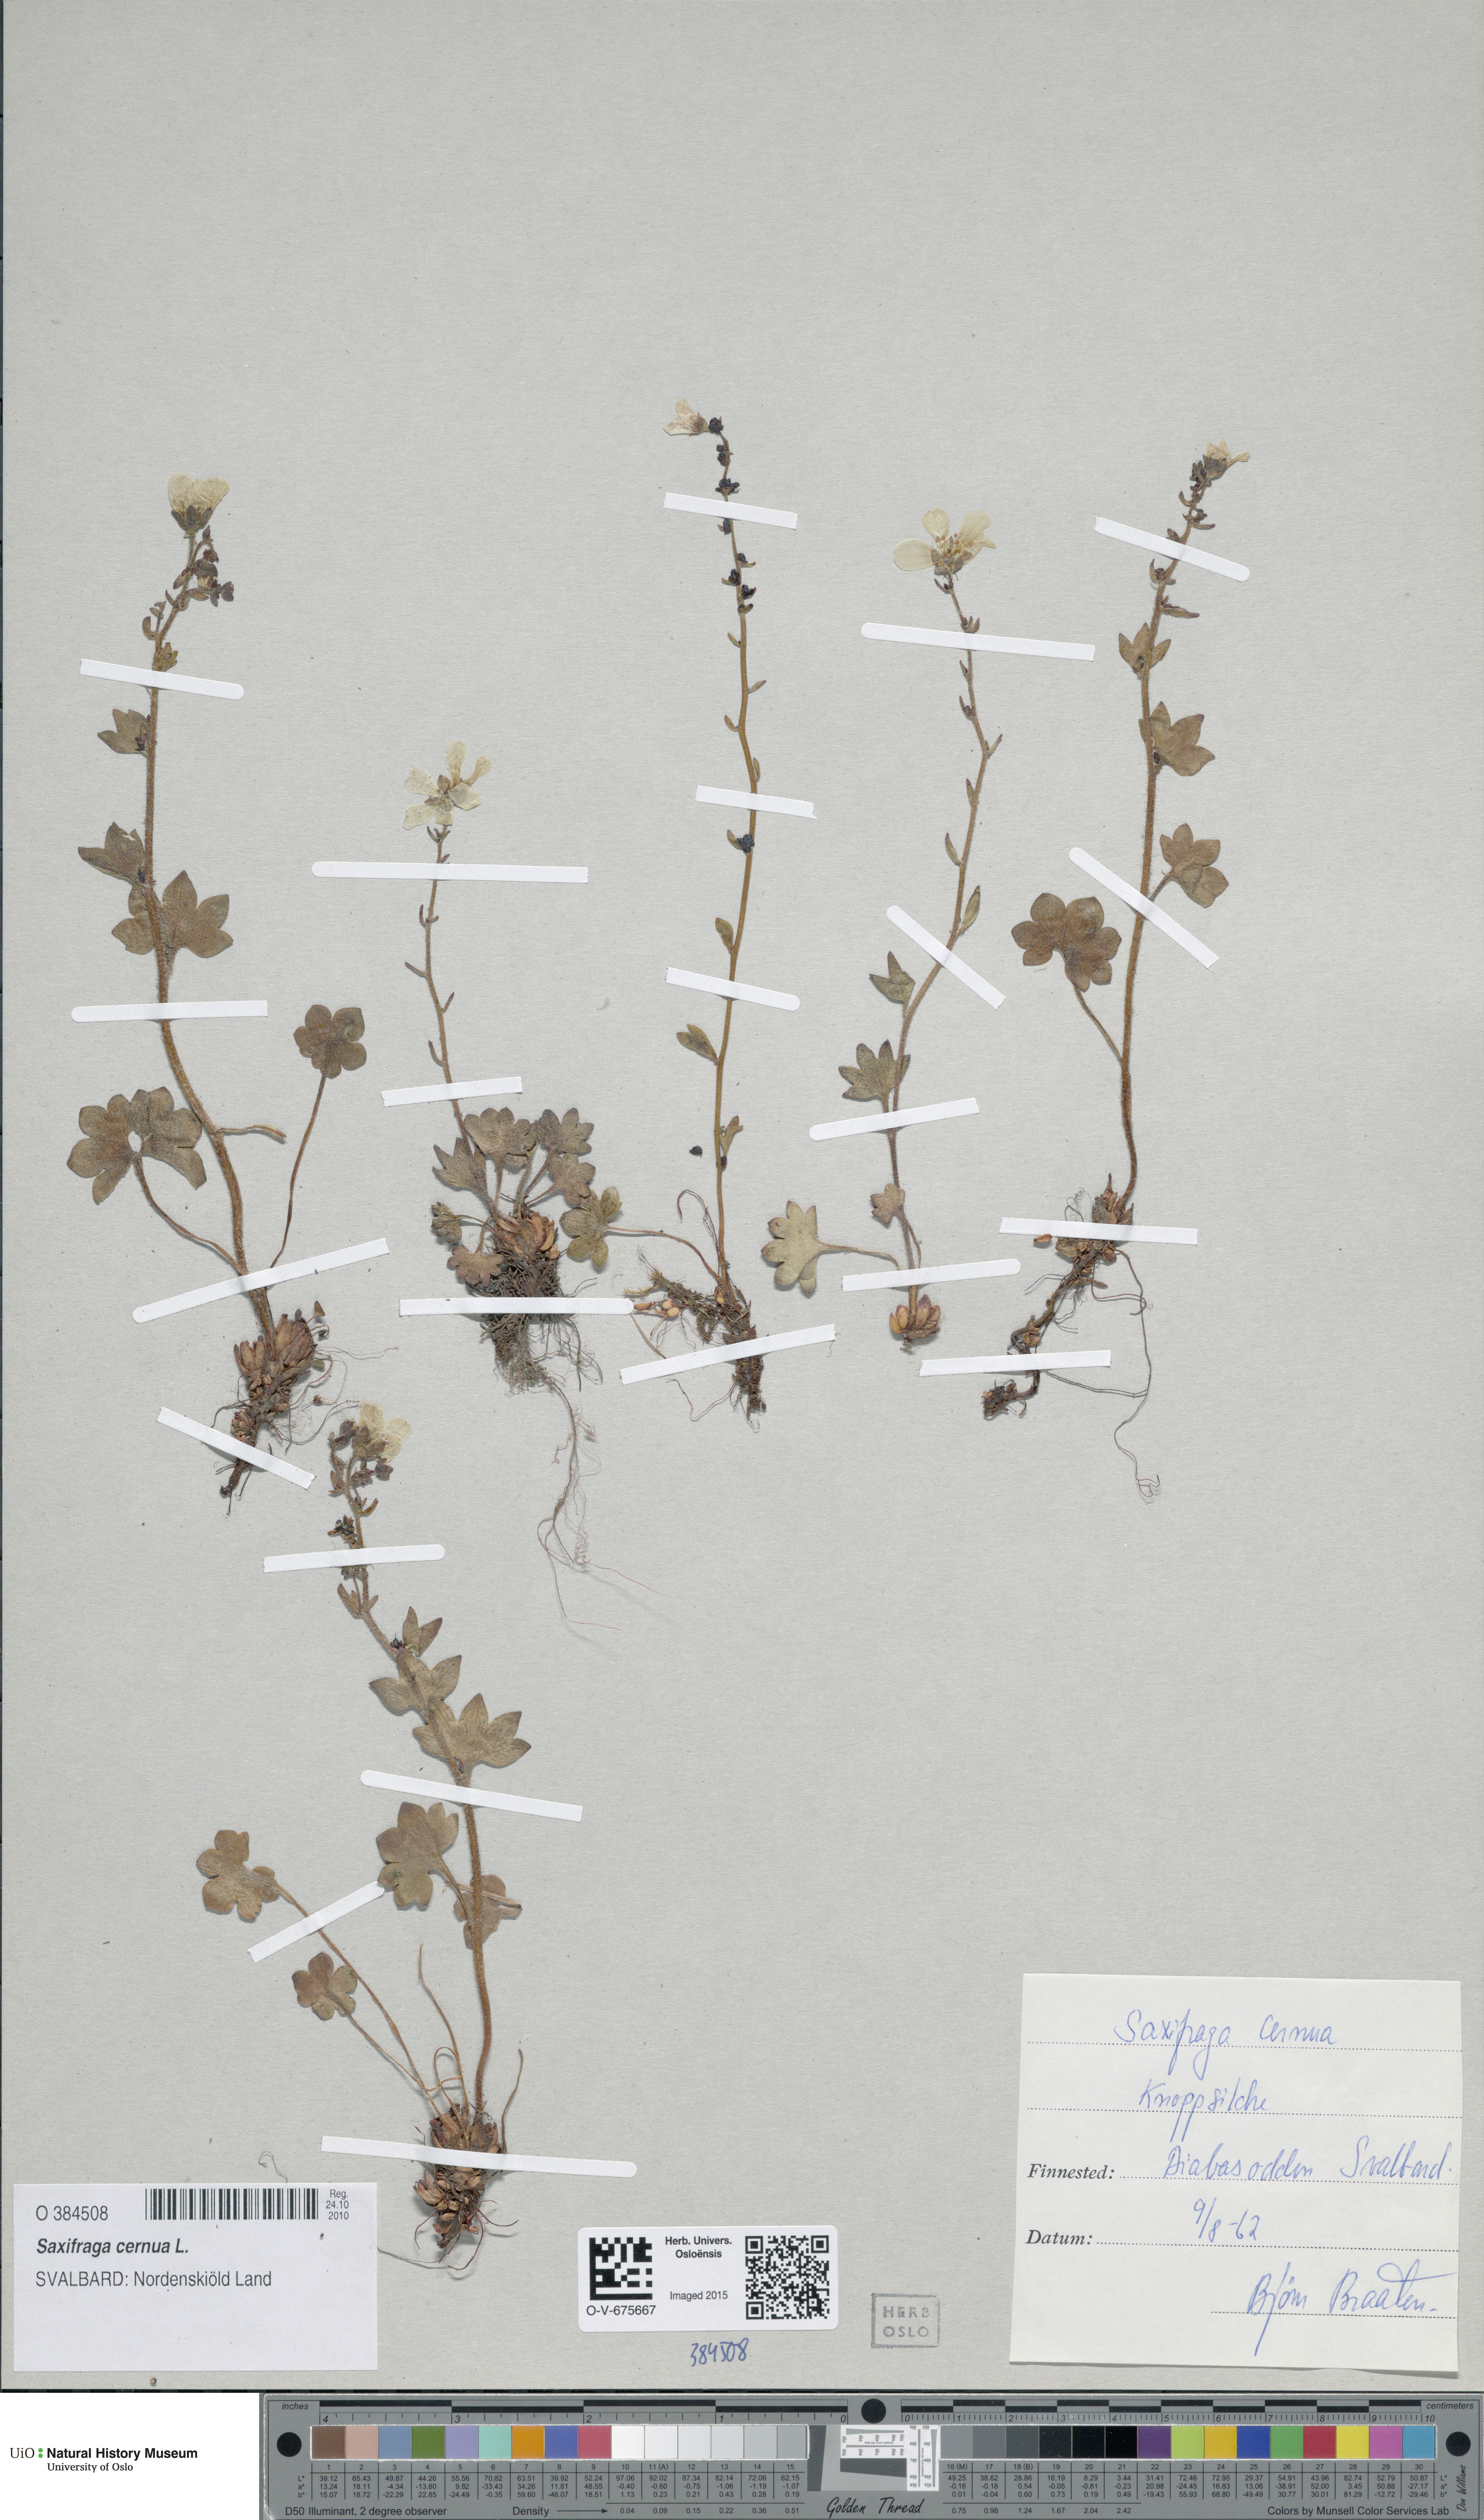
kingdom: Plantae
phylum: Tracheophyta
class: Magnoliopsida
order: Saxifragales
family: Saxifragaceae
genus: Saxifraga
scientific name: Saxifraga cernua
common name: Drooping saxifrage
